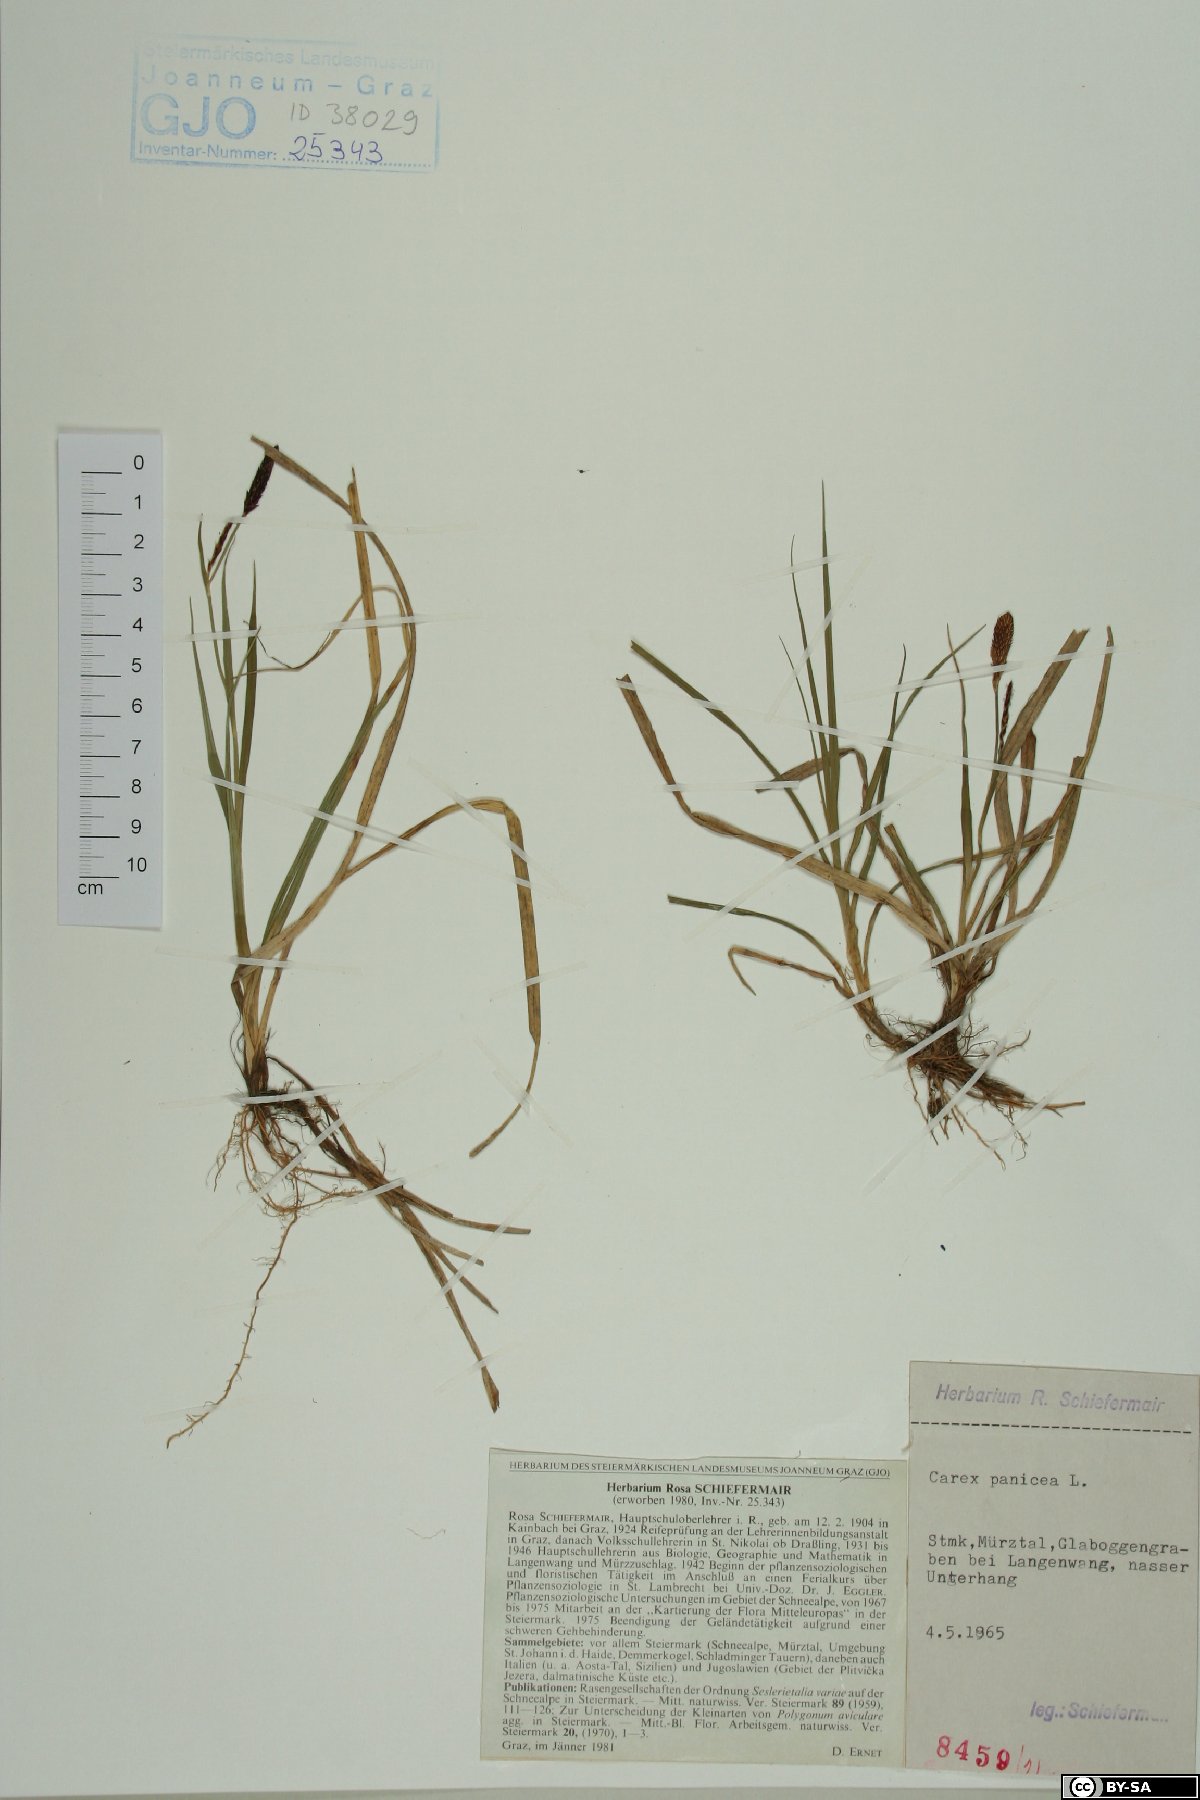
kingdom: Plantae
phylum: Tracheophyta
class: Liliopsida
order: Poales
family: Cyperaceae
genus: Carex
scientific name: Carex panicea
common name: Carnation sedge
